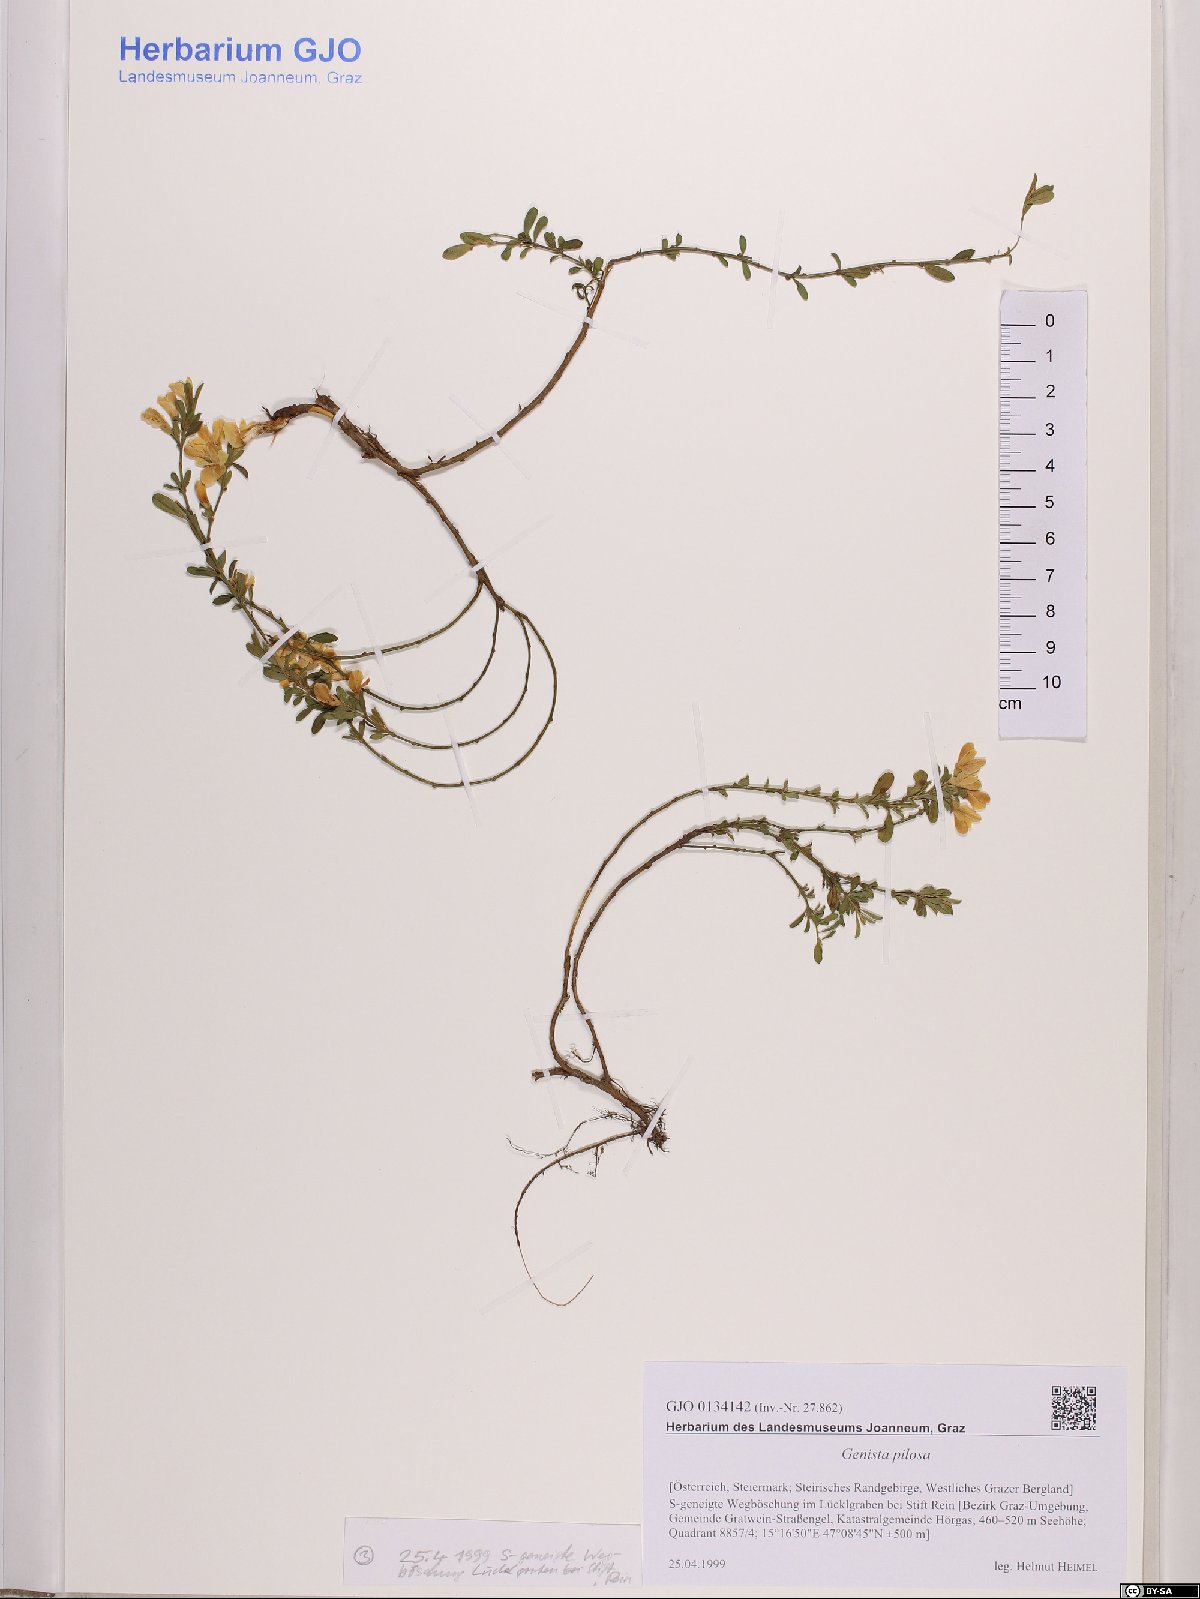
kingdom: Plantae
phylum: Tracheophyta
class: Magnoliopsida
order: Fabales
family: Fabaceae
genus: Genista
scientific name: Genista pilosa
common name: Hairy greenweed
